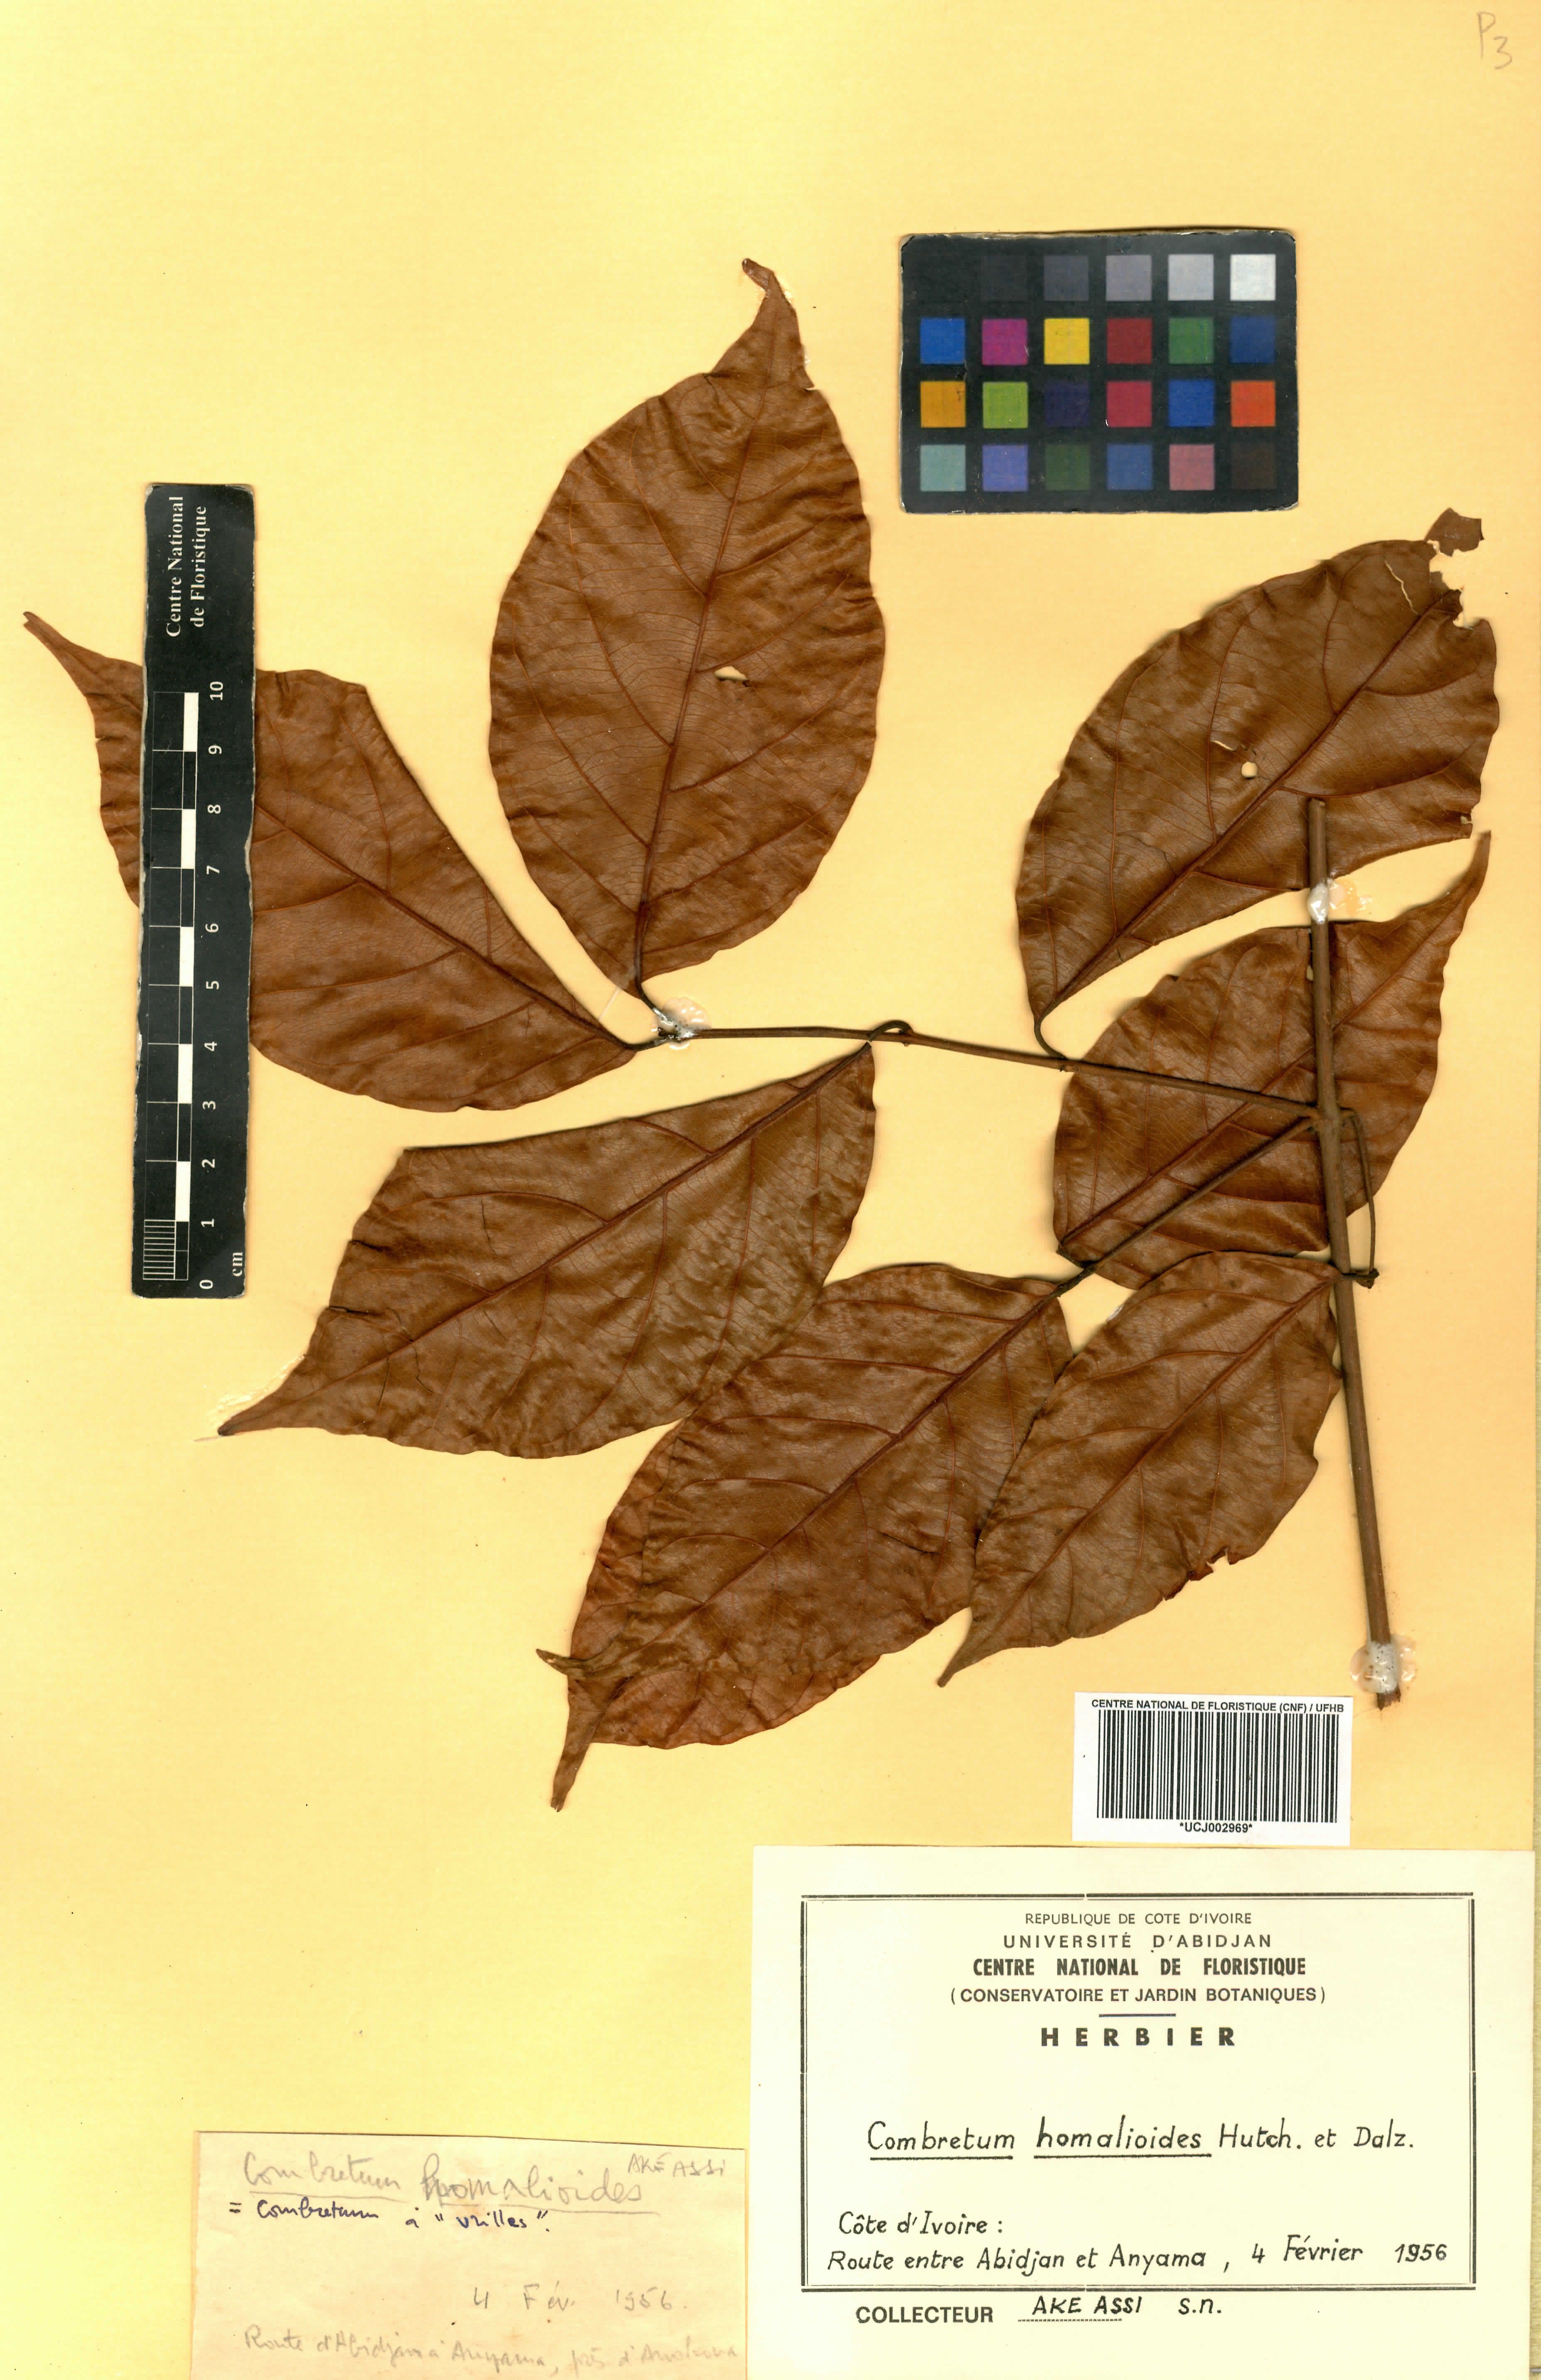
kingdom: Plantae
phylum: Tracheophyta
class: Magnoliopsida
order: Myrtales
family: Combretaceae
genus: Combretum
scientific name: Combretum homalioides
